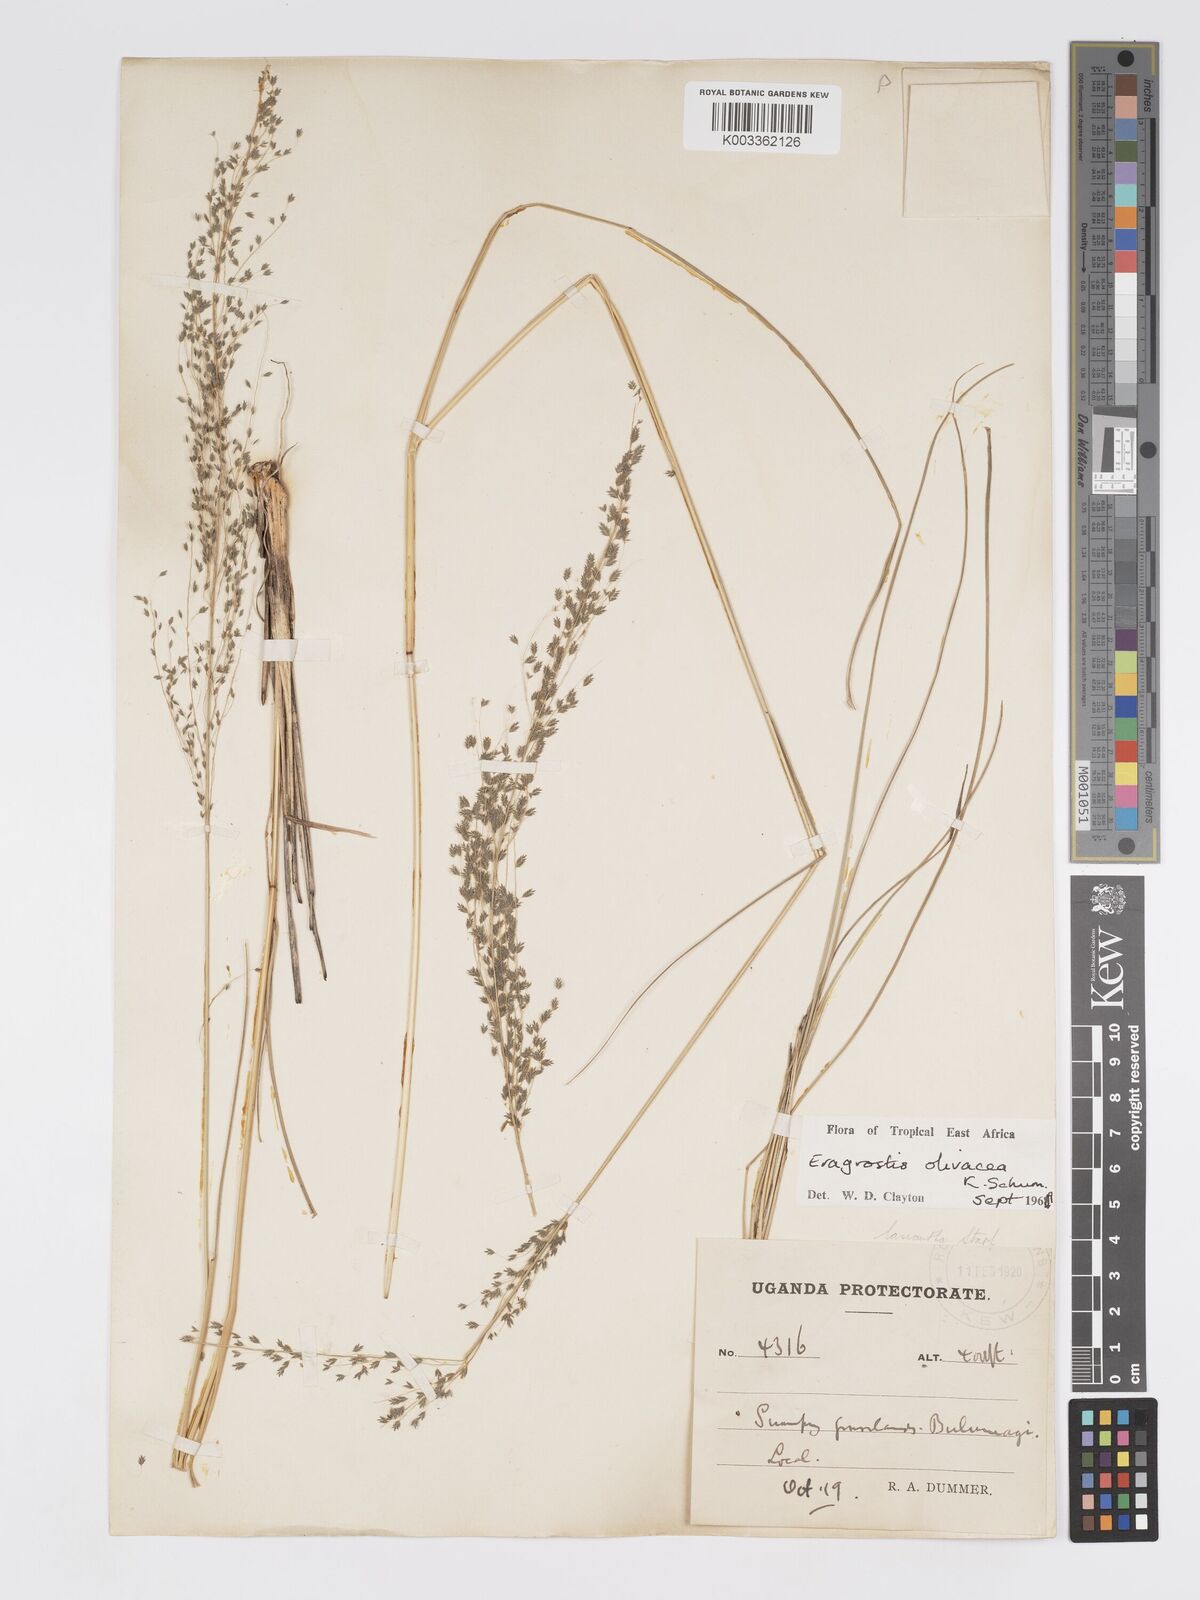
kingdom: Plantae
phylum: Tracheophyta
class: Liliopsida
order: Poales
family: Poaceae
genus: Eragrostis
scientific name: Eragrostis olivacea
